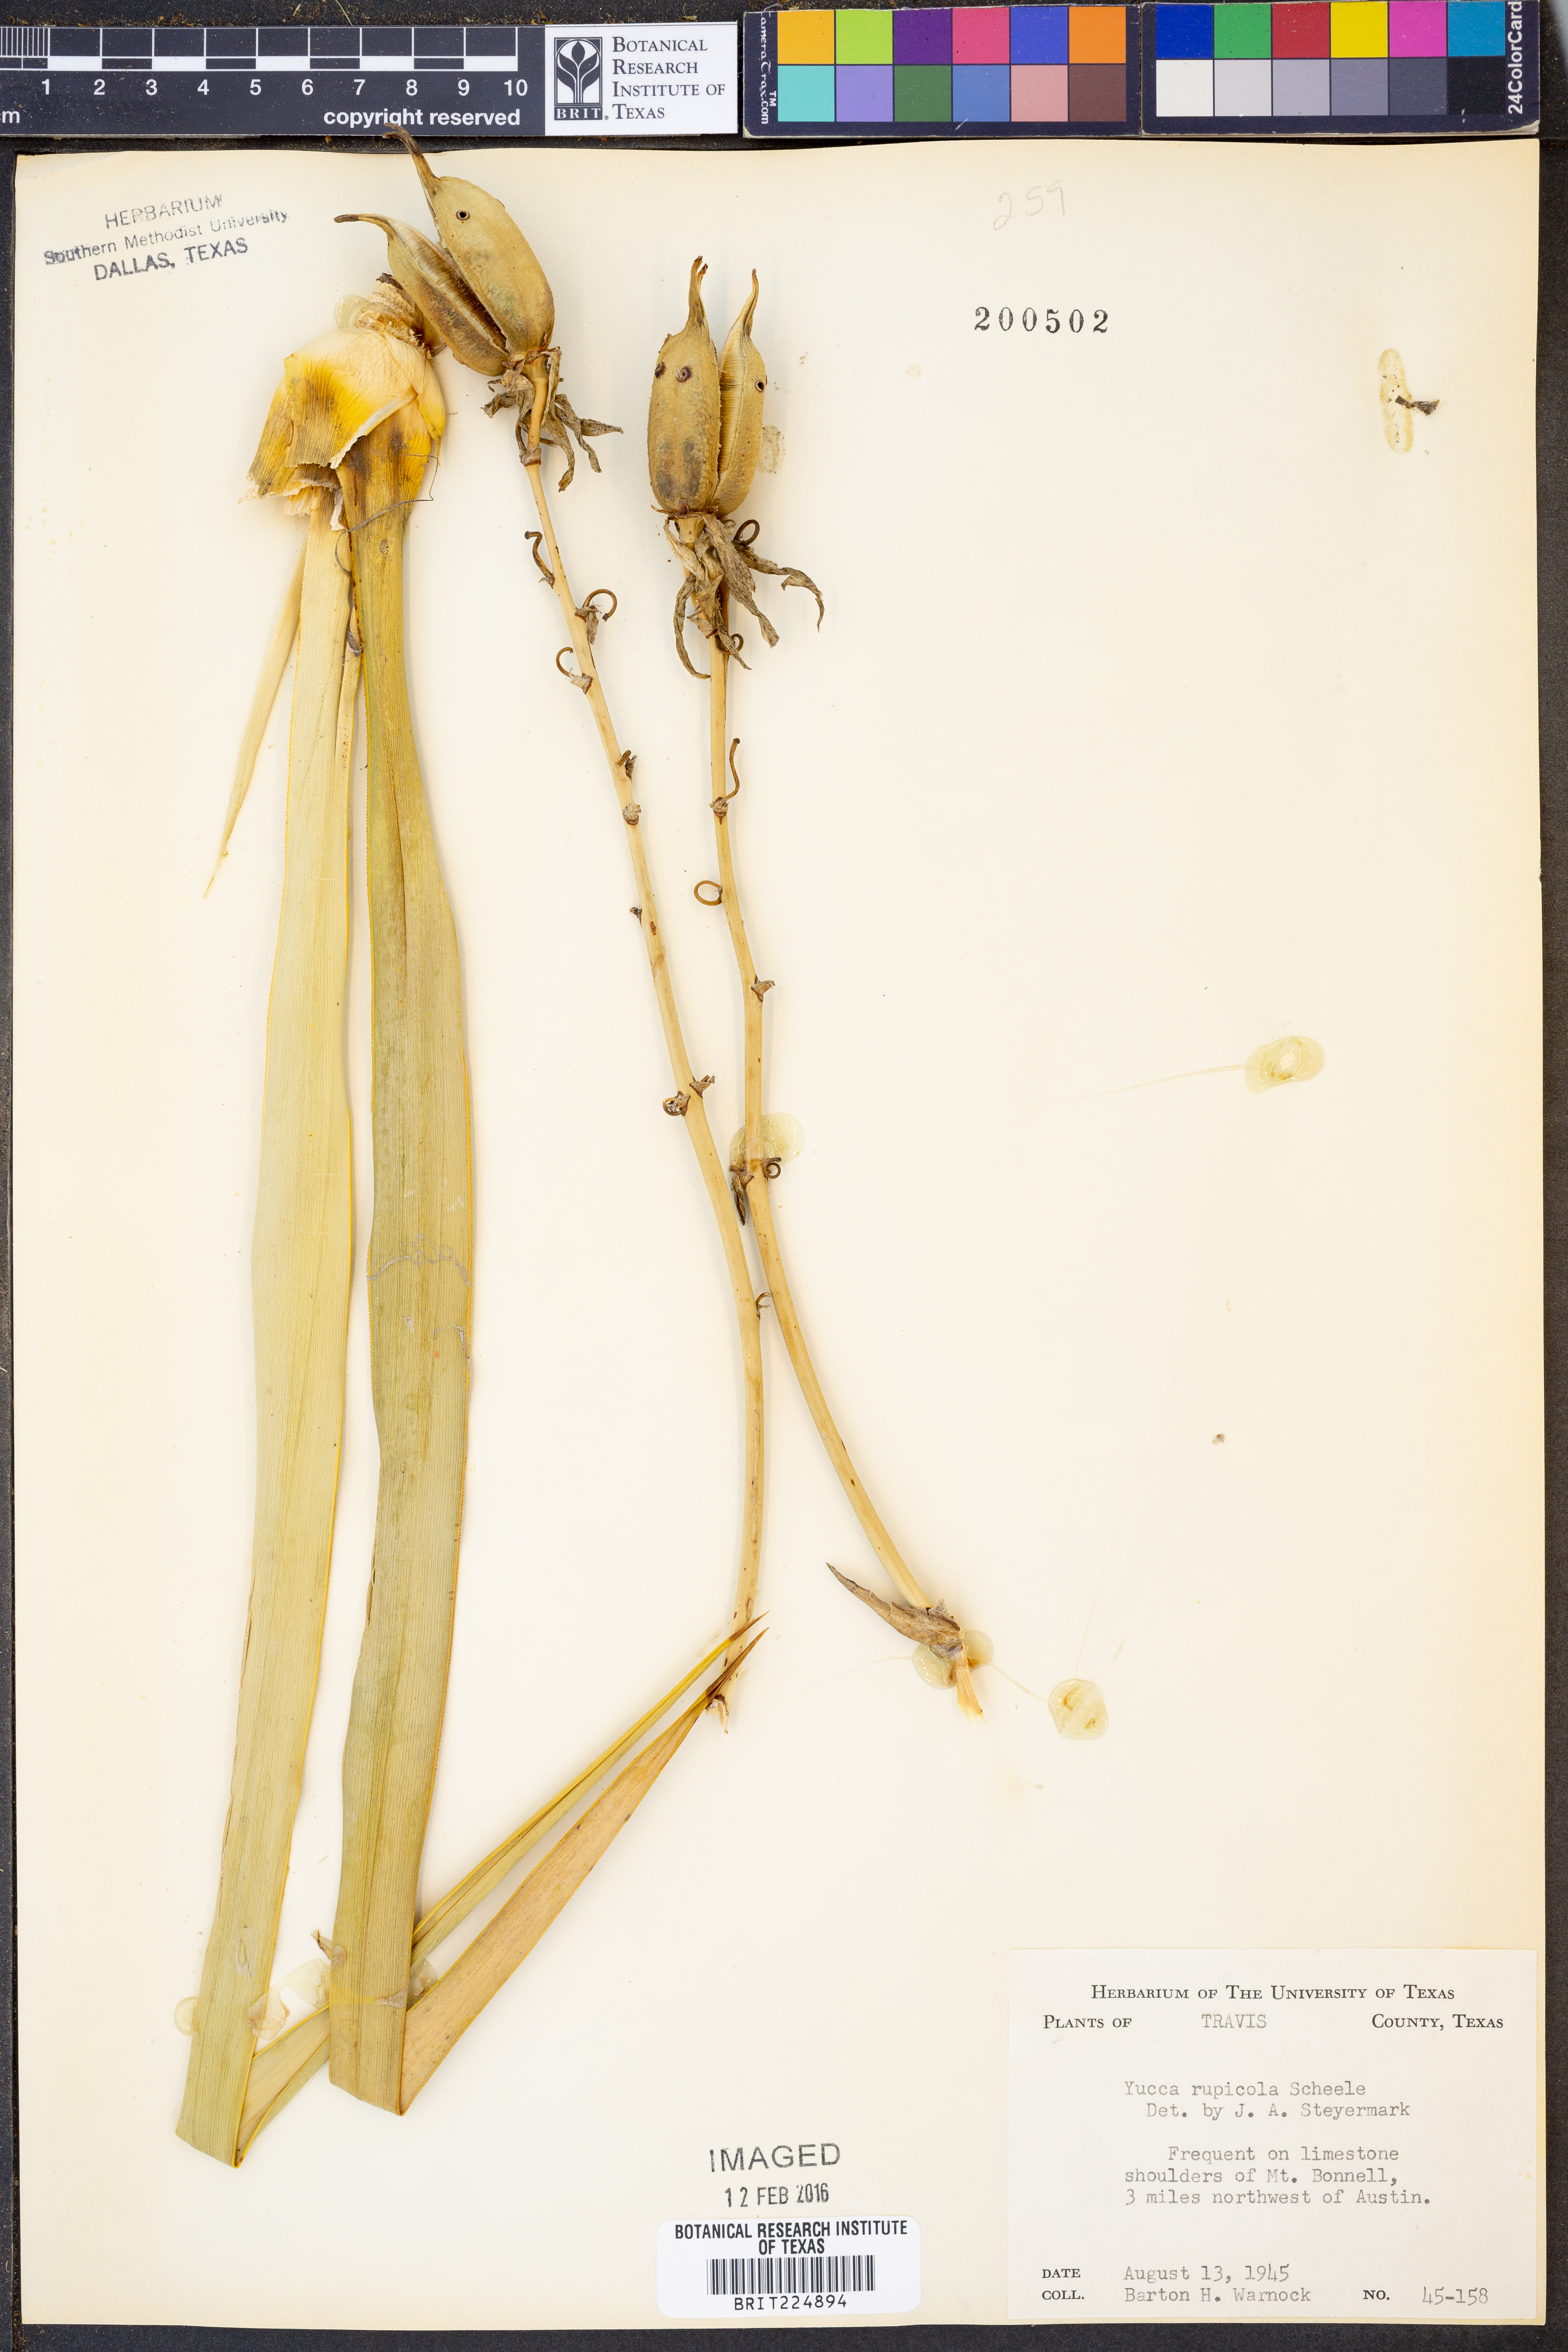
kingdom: Plantae
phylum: Tracheophyta
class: Liliopsida
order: Asparagales
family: Asparagaceae
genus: Yucca
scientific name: Yucca rupicola
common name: Twisted-leaf spanish-dagger
